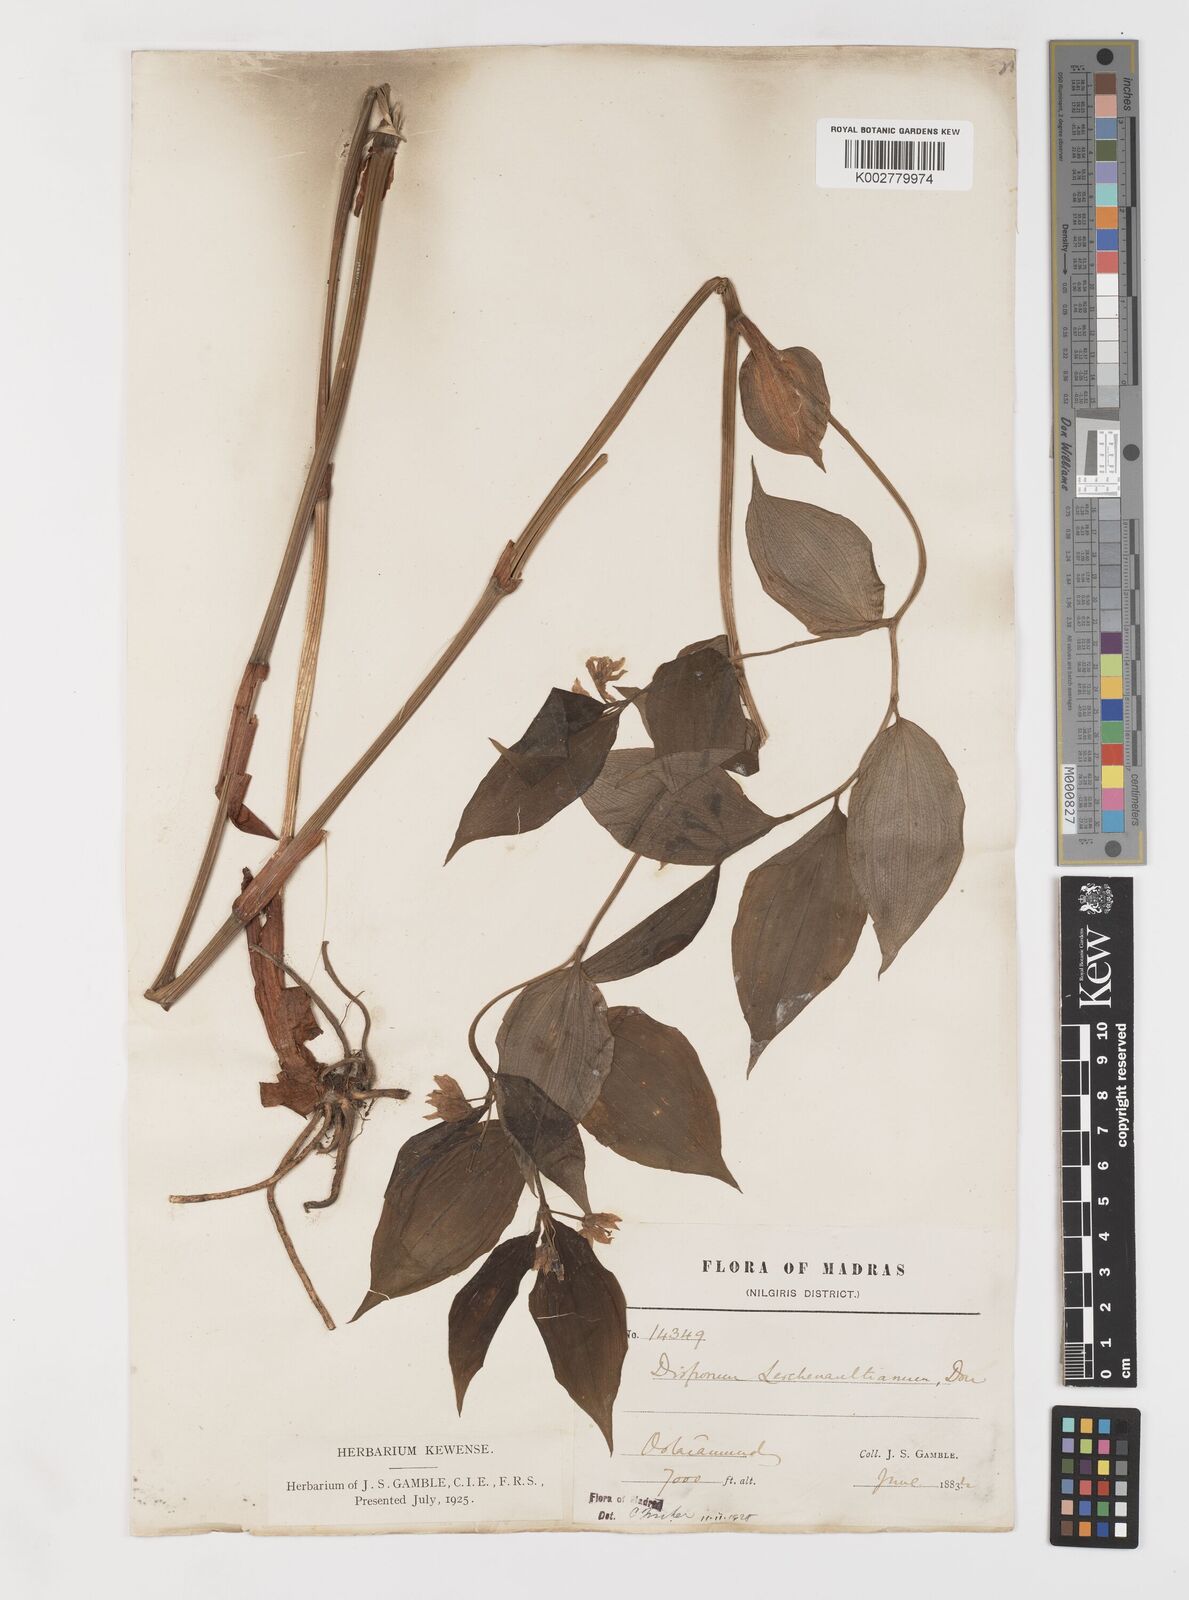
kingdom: Plantae
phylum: Tracheophyta
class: Liliopsida
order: Liliales
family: Colchicaceae
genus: Disporum
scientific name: Disporum cantoniense
